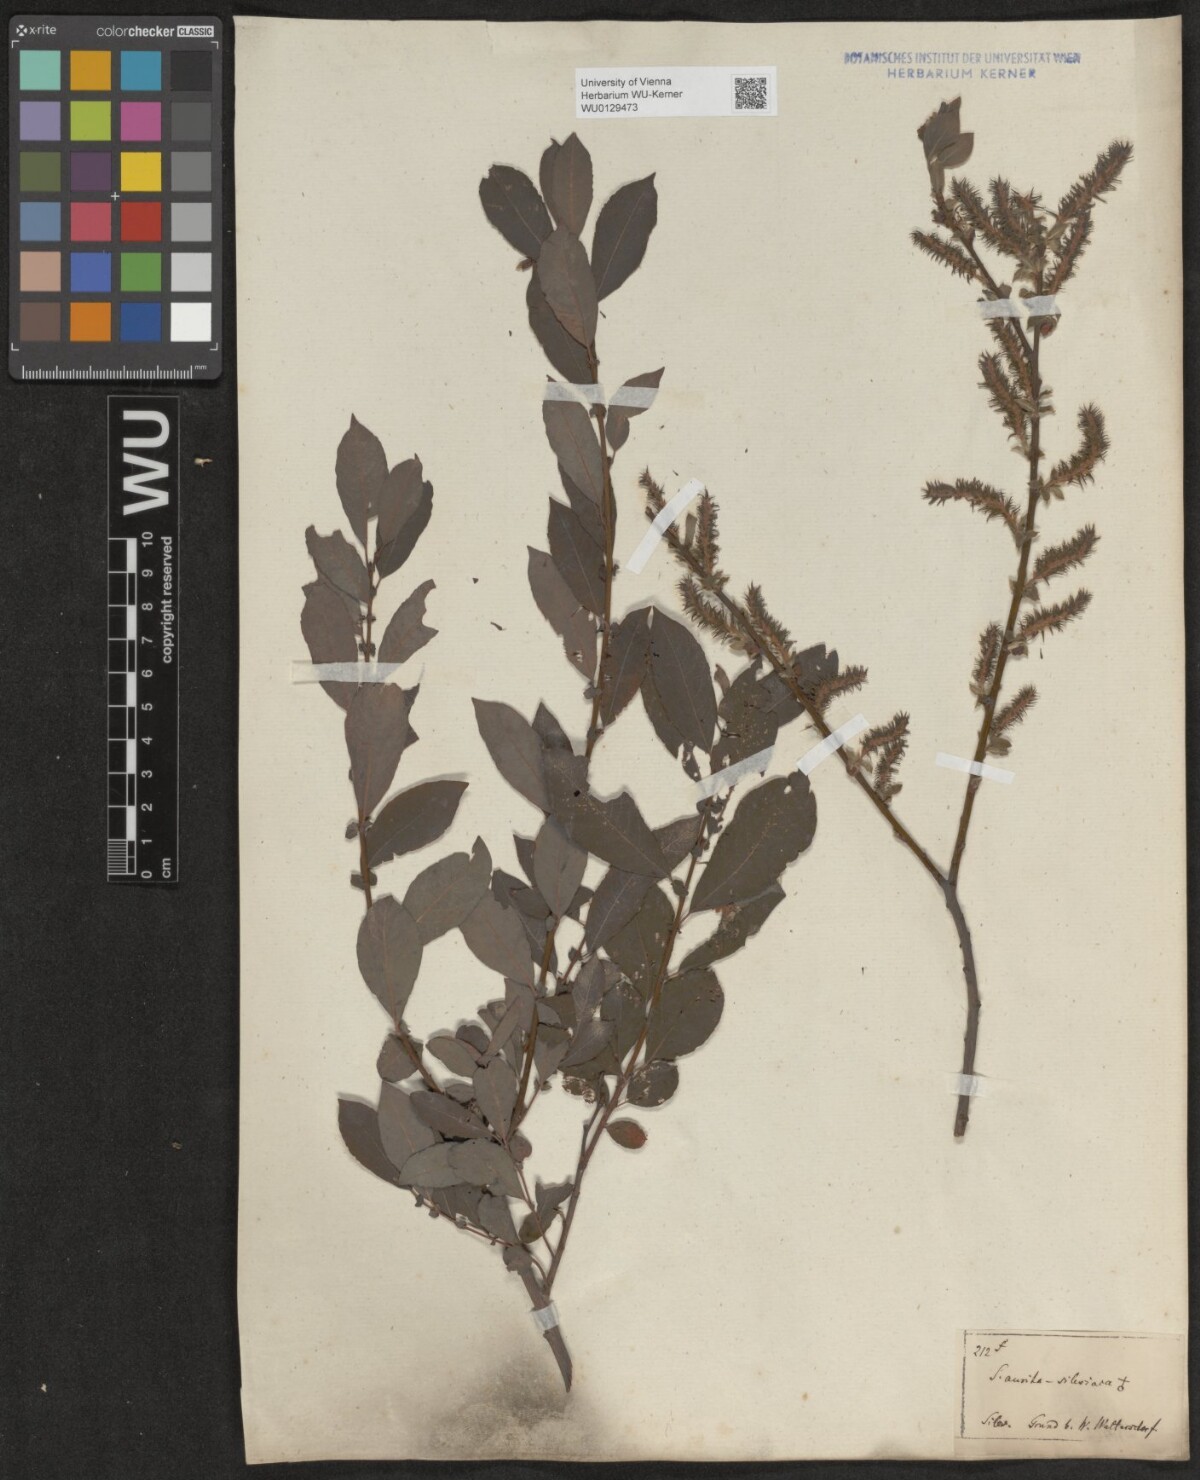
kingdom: Plantae
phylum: Tracheophyta
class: Magnoliopsida
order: Malpighiales
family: Salicaceae
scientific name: Salicaceae
